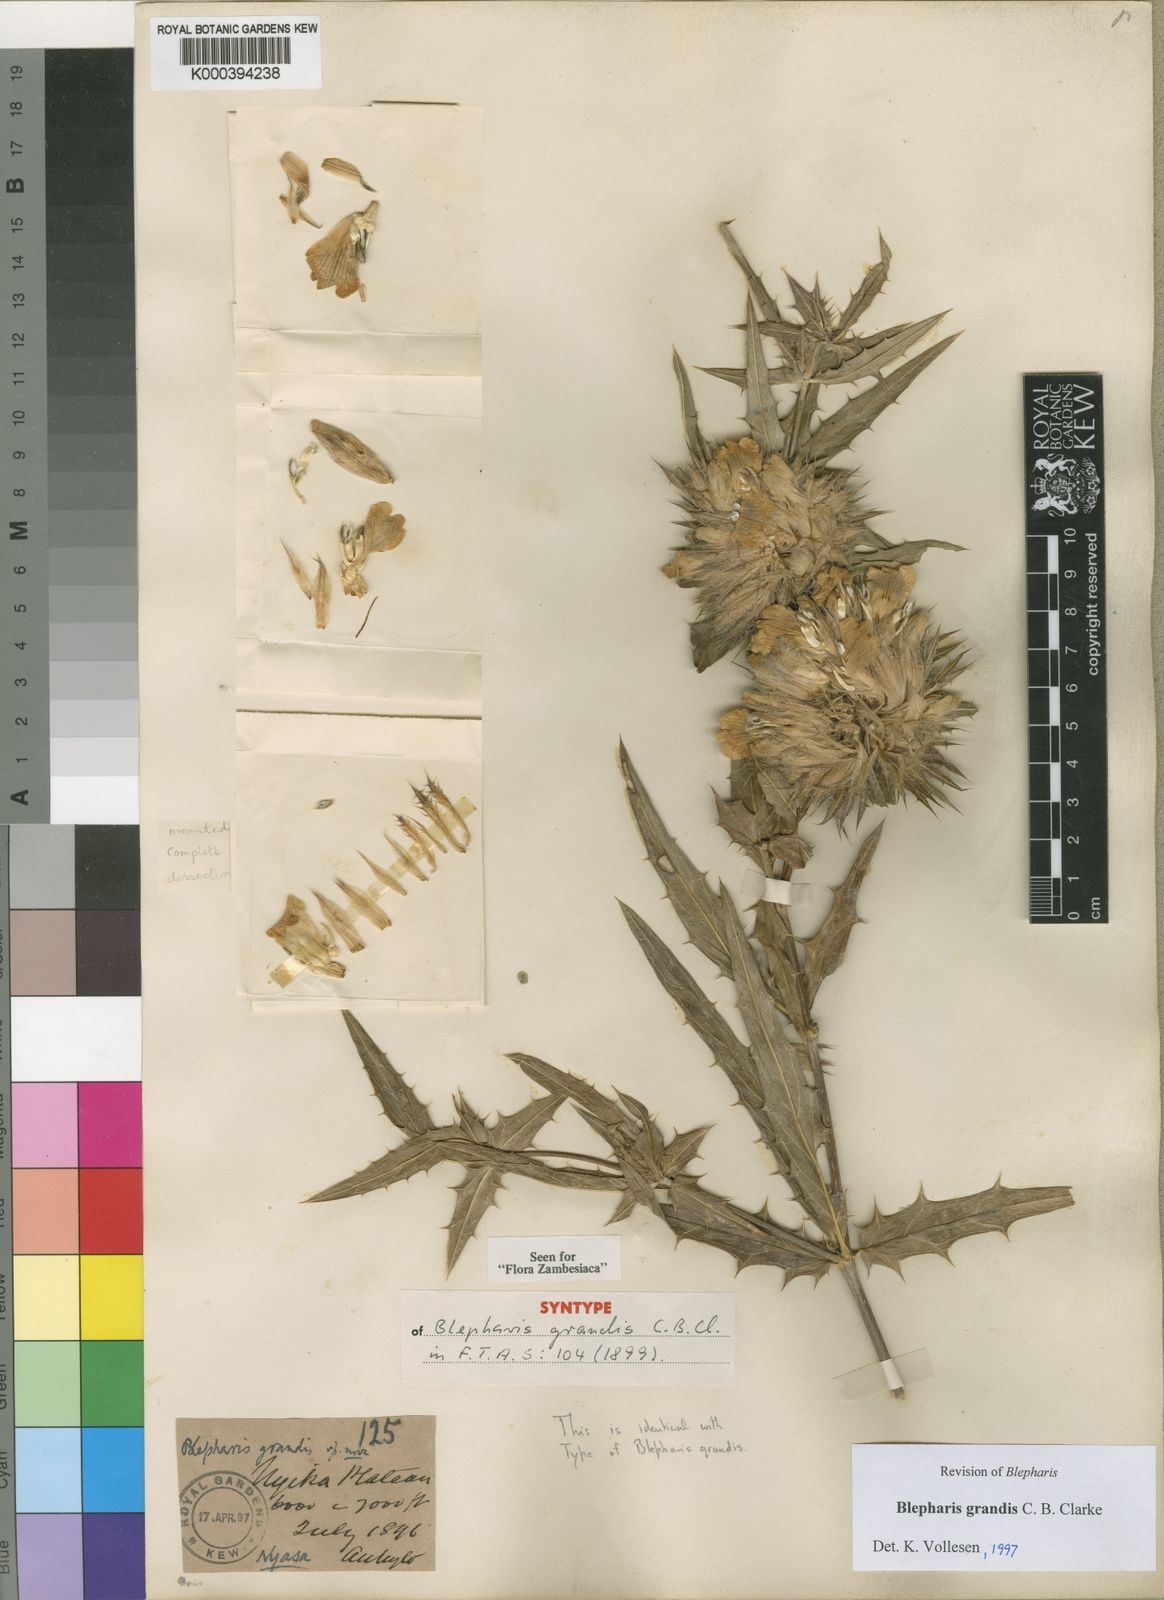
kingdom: Plantae
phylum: Tracheophyta
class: Magnoliopsida
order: Lamiales
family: Acanthaceae
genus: Blepharis
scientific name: Blepharis grandis
